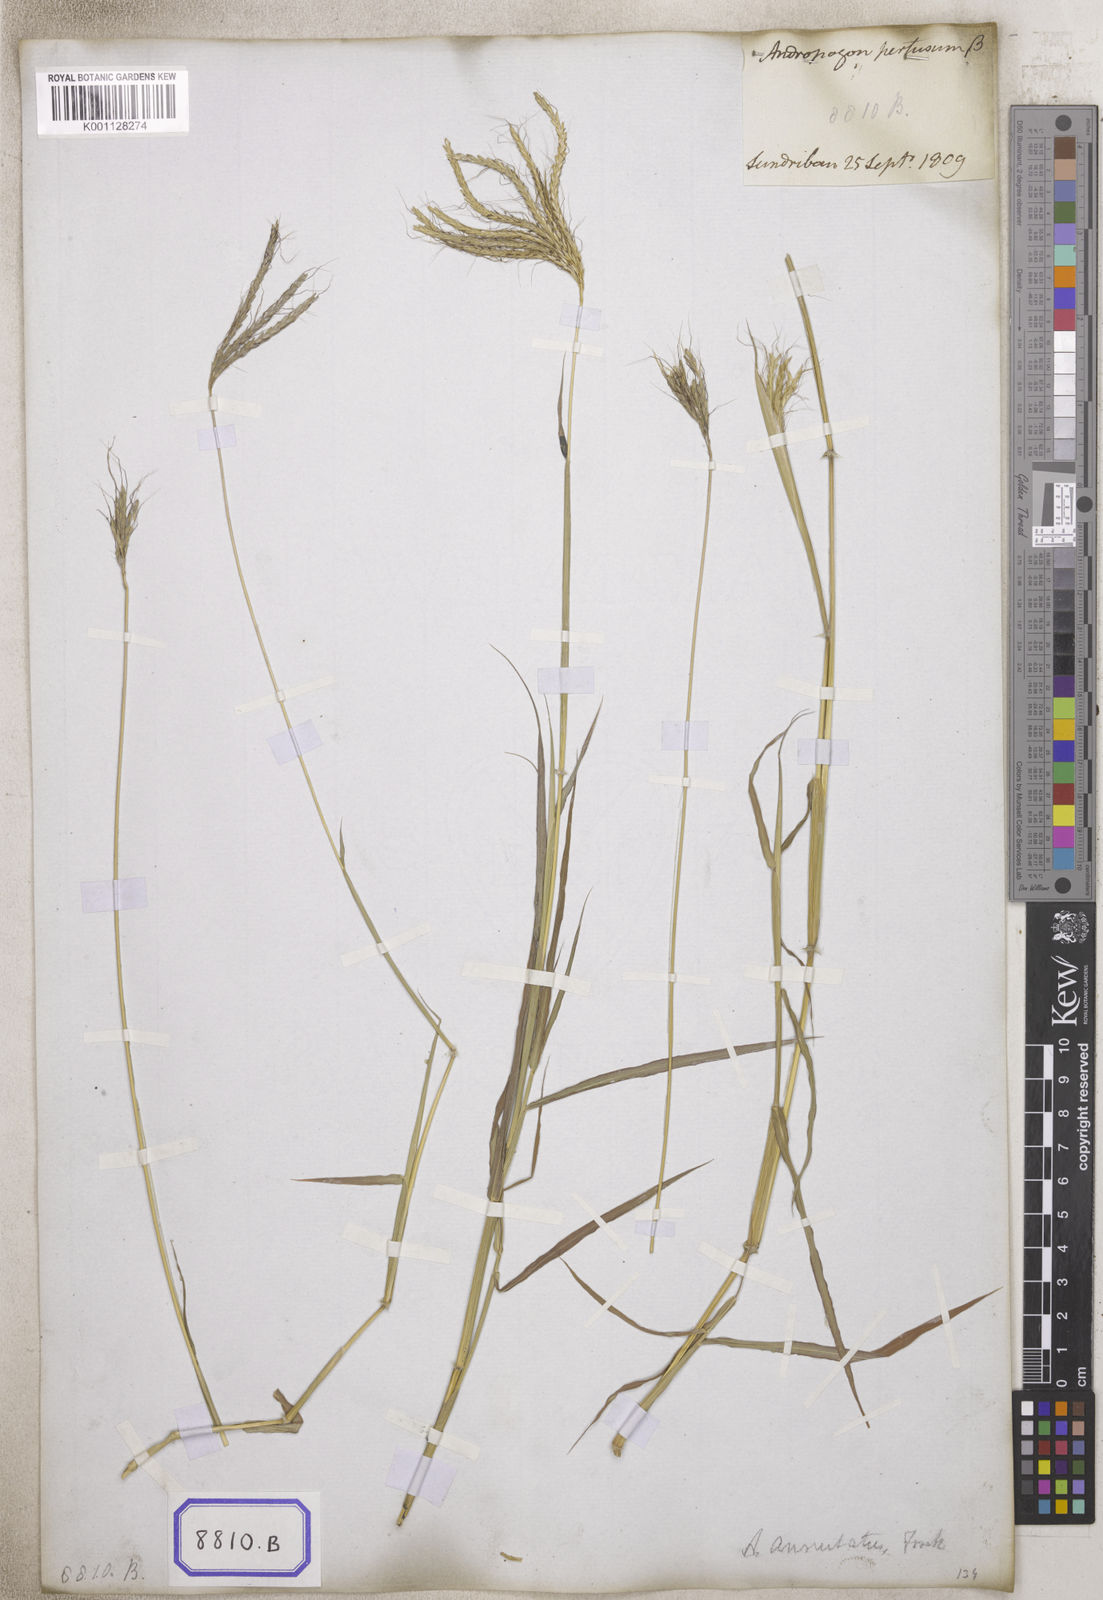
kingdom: Plantae
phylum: Tracheophyta
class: Liliopsida
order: Poales
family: Poaceae
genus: Andropogon
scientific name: Andropogon
